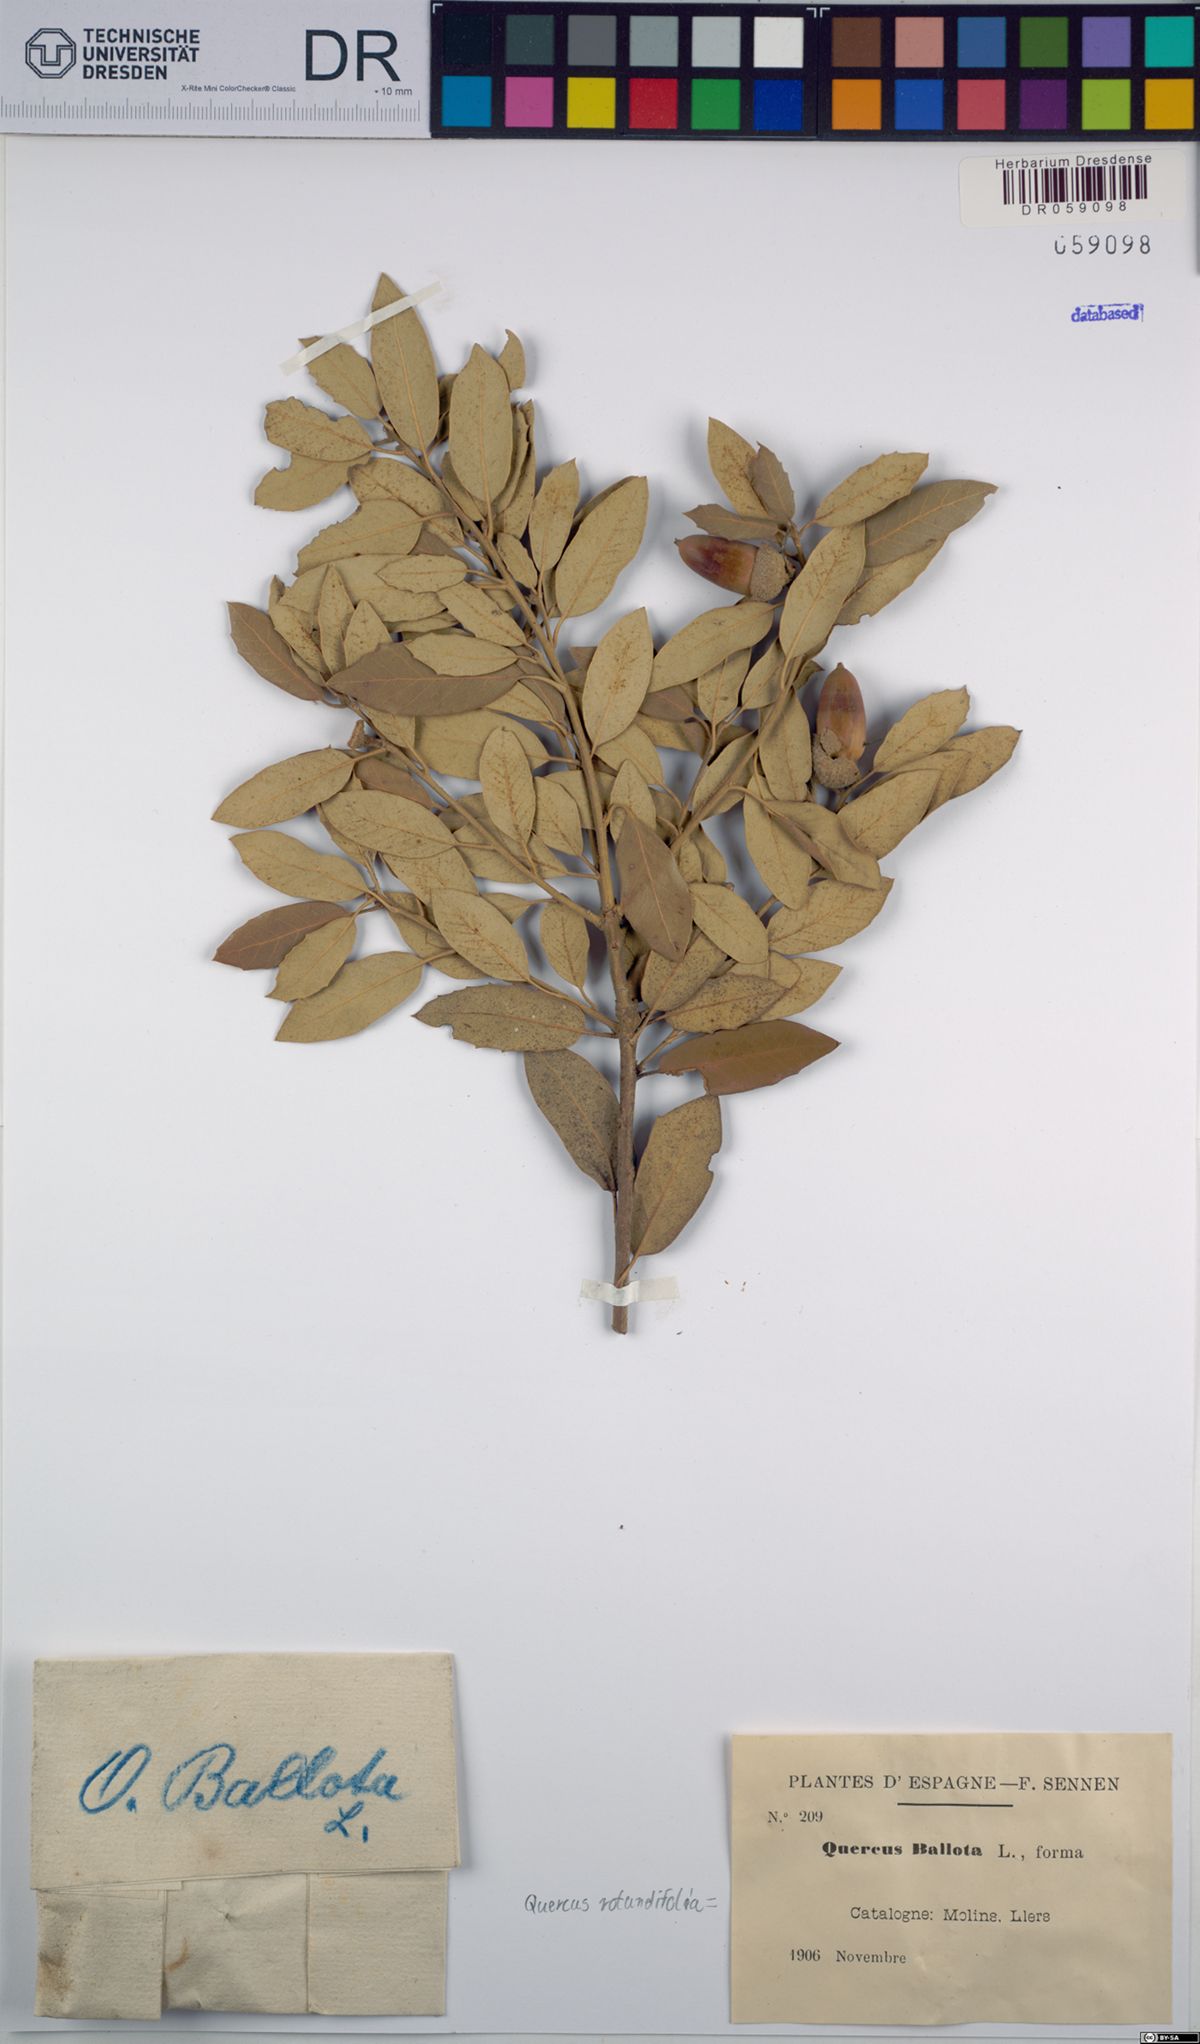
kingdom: Plantae
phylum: Tracheophyta
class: Magnoliopsida
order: Fagales
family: Fagaceae
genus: Quercus
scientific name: Quercus rotundifolia
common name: Holm oak
